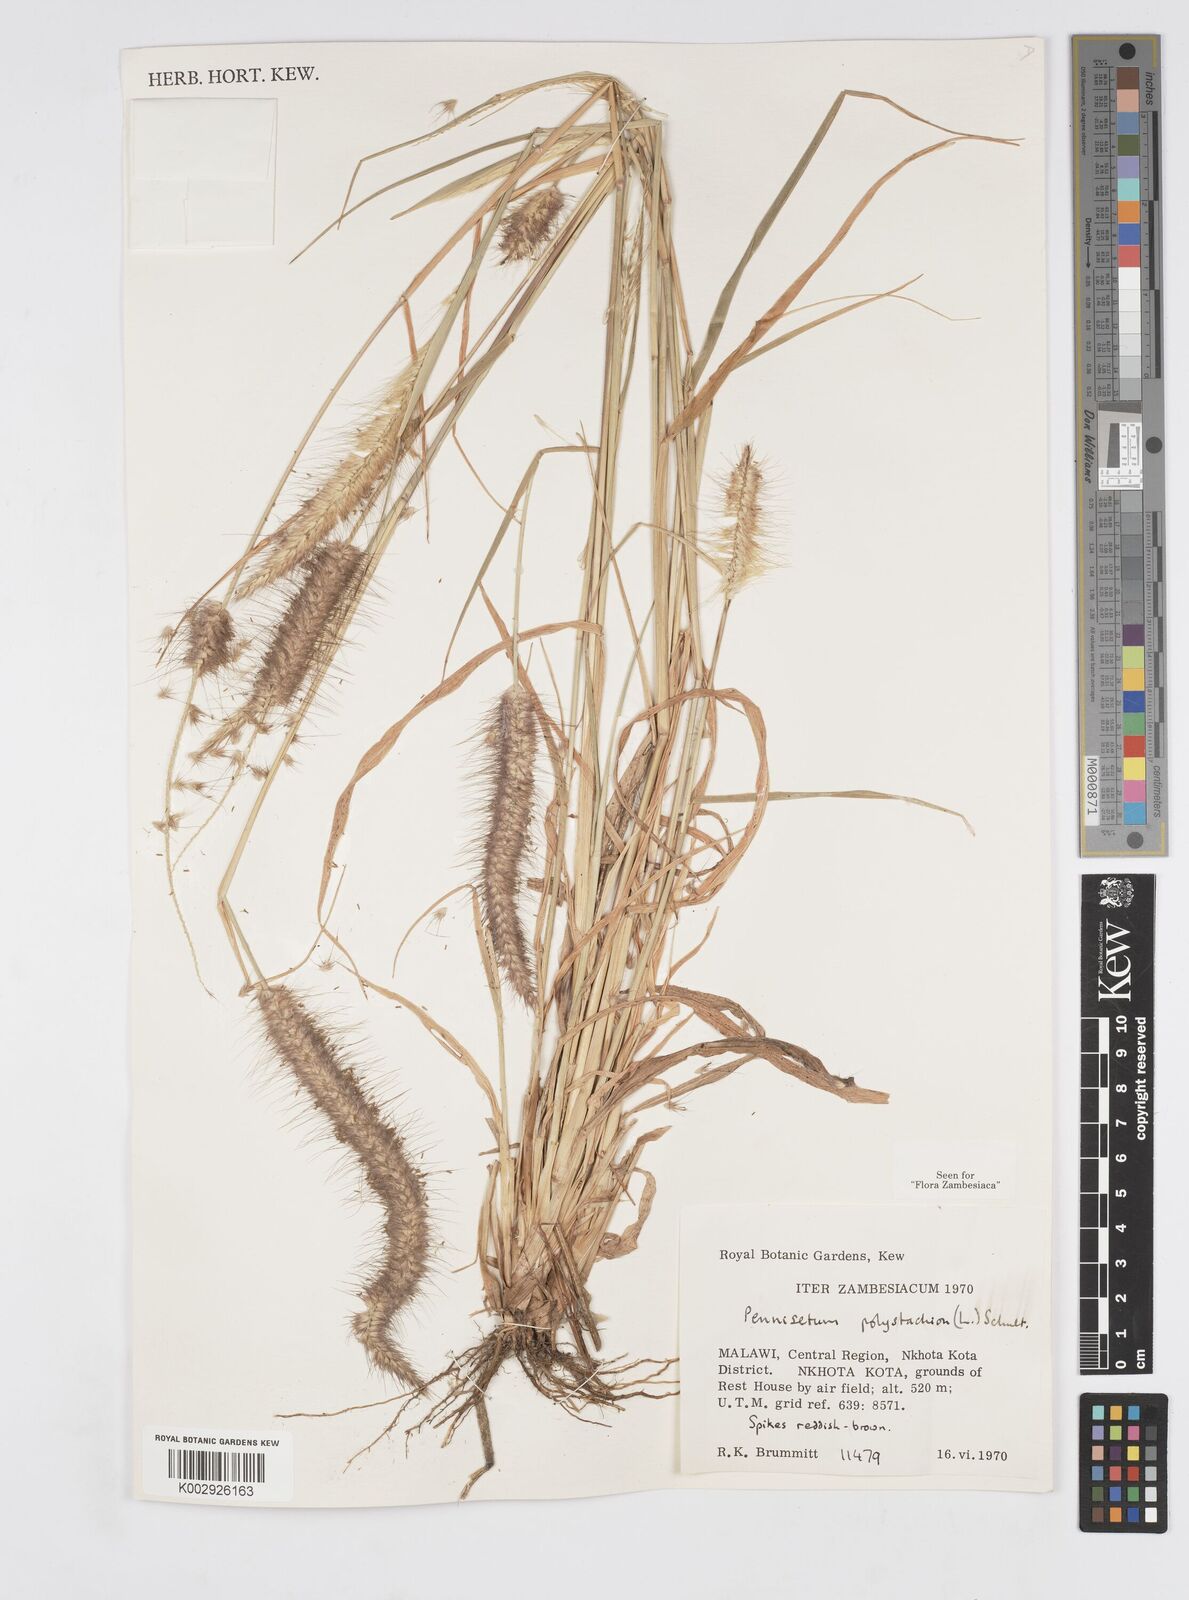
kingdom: Plantae
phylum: Tracheophyta
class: Liliopsida
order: Poales
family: Poaceae
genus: Setaria
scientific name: Setaria parviflora
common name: Knotroot bristle-grass
